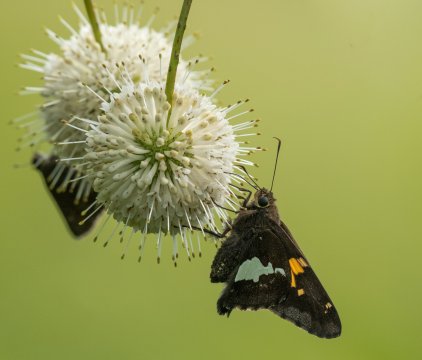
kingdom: Animalia
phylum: Arthropoda
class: Insecta
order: Lepidoptera
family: Hesperiidae
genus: Epargyreus
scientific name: Epargyreus clarus
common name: Silver-spotted Skipper
